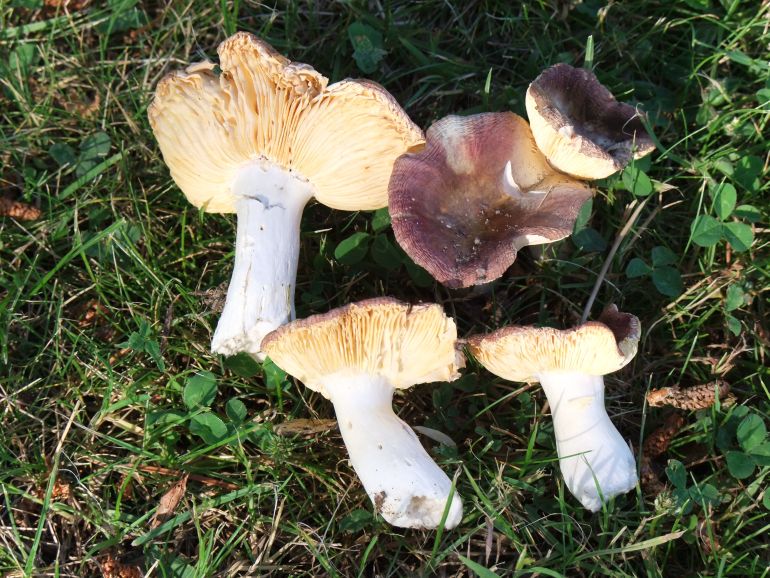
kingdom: Fungi
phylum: Basidiomycota
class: Agaricomycetes
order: Russulales
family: Russulaceae
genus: Russula
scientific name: Russula cessans
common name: fyrre-skørhat
